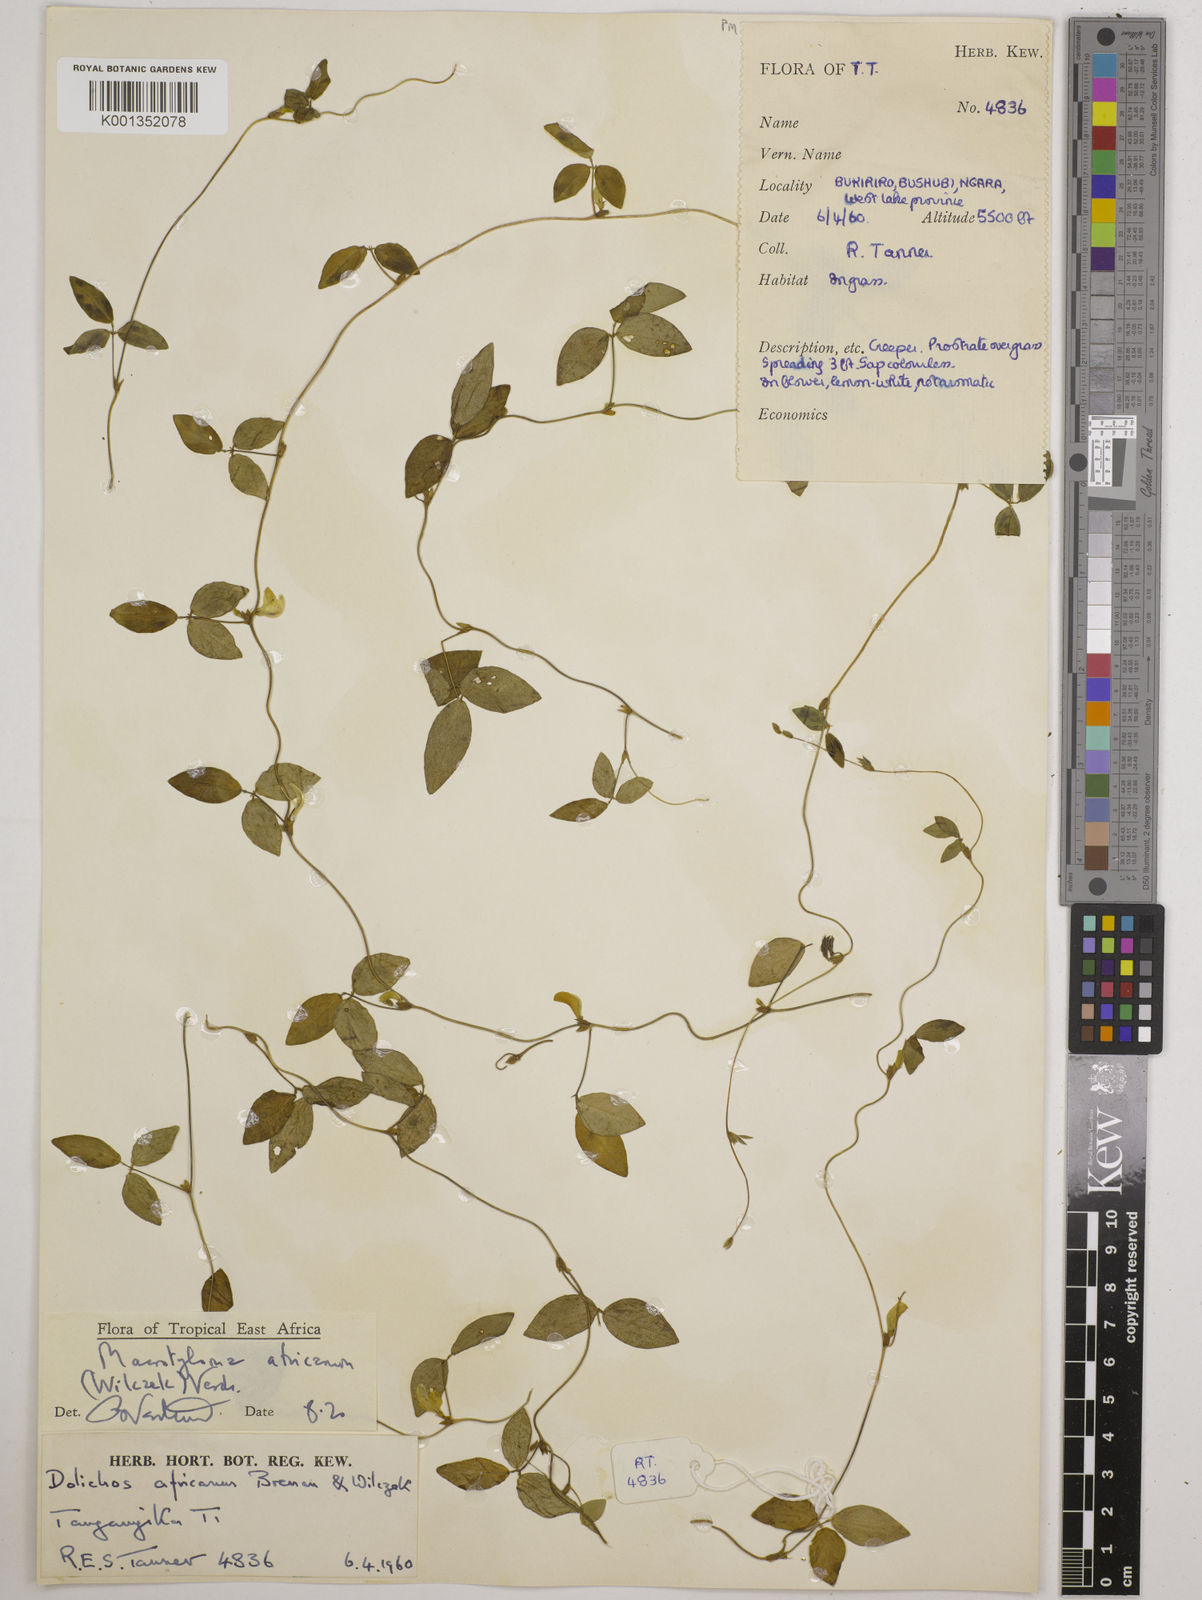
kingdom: Plantae
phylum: Tracheophyta
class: Magnoliopsida
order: Fabales
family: Fabaceae
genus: Macrotyloma
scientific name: Macrotyloma africanum
